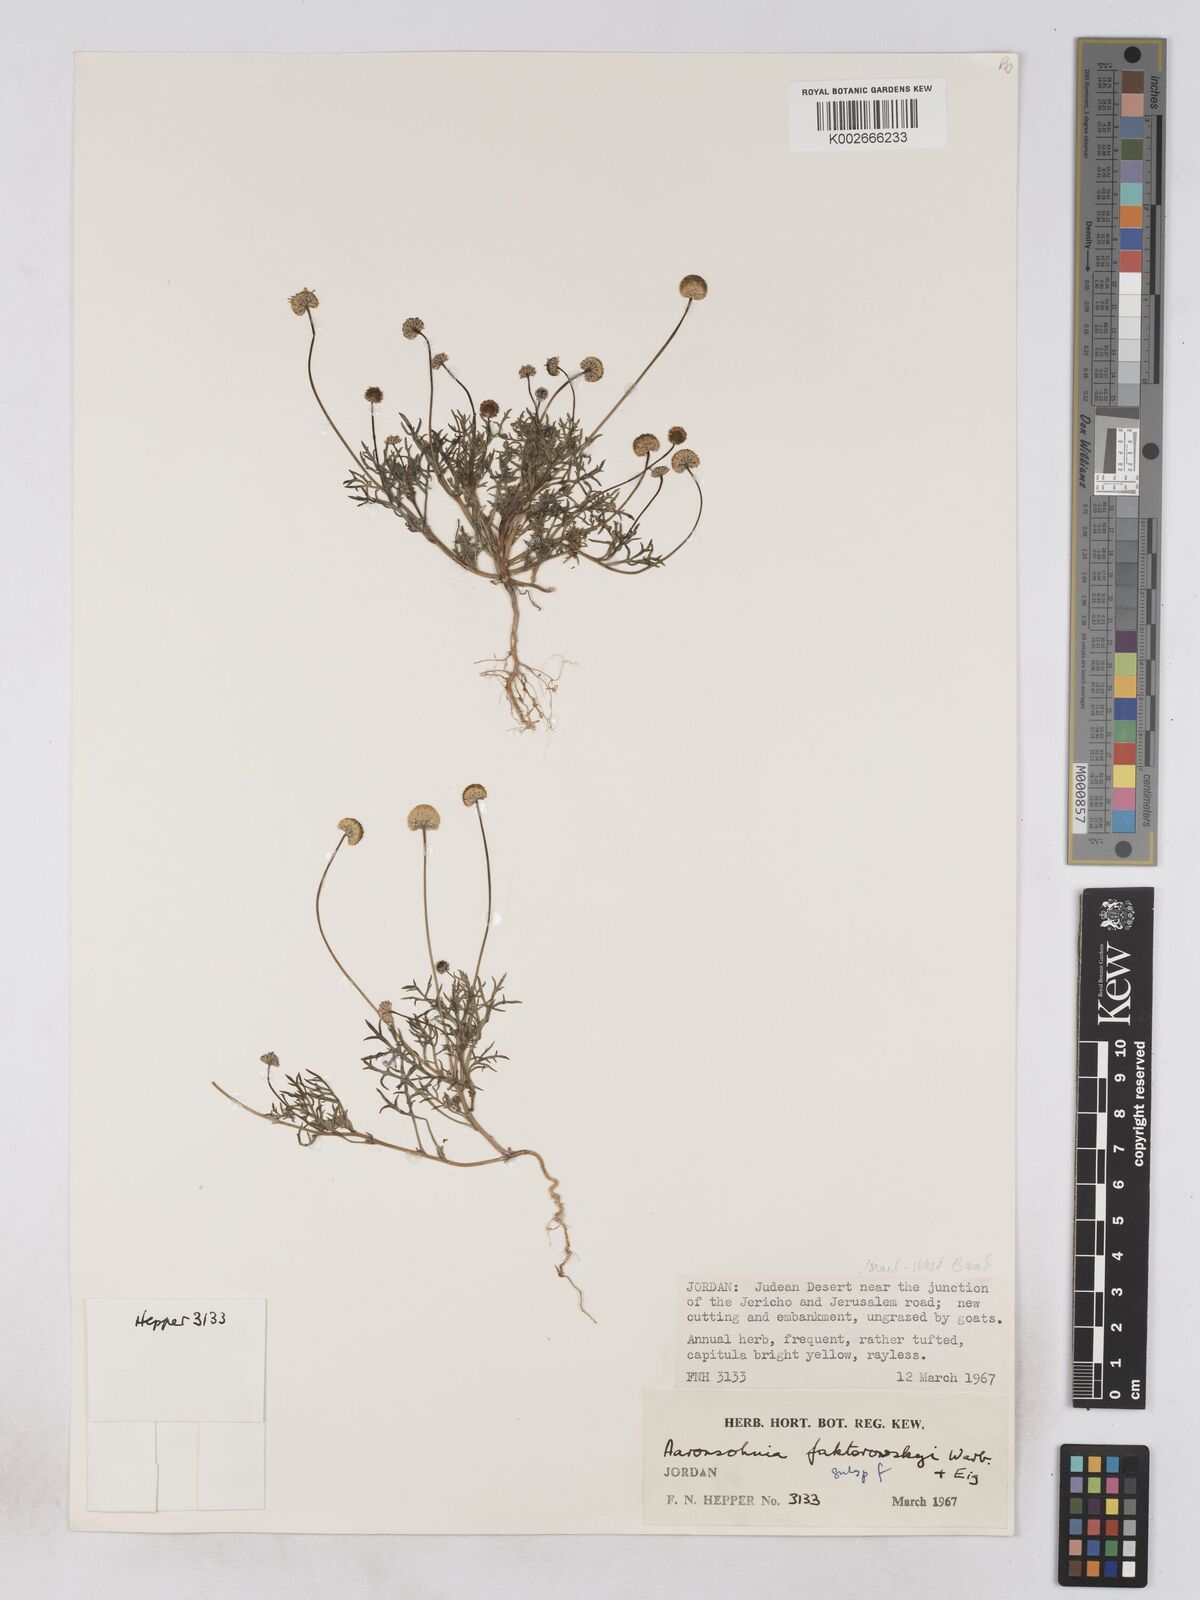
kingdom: Plantae
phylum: Tracheophyta
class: Magnoliopsida
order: Asterales
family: Asteraceae
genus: Otoglyphis
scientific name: Otoglyphis factorovskyi
